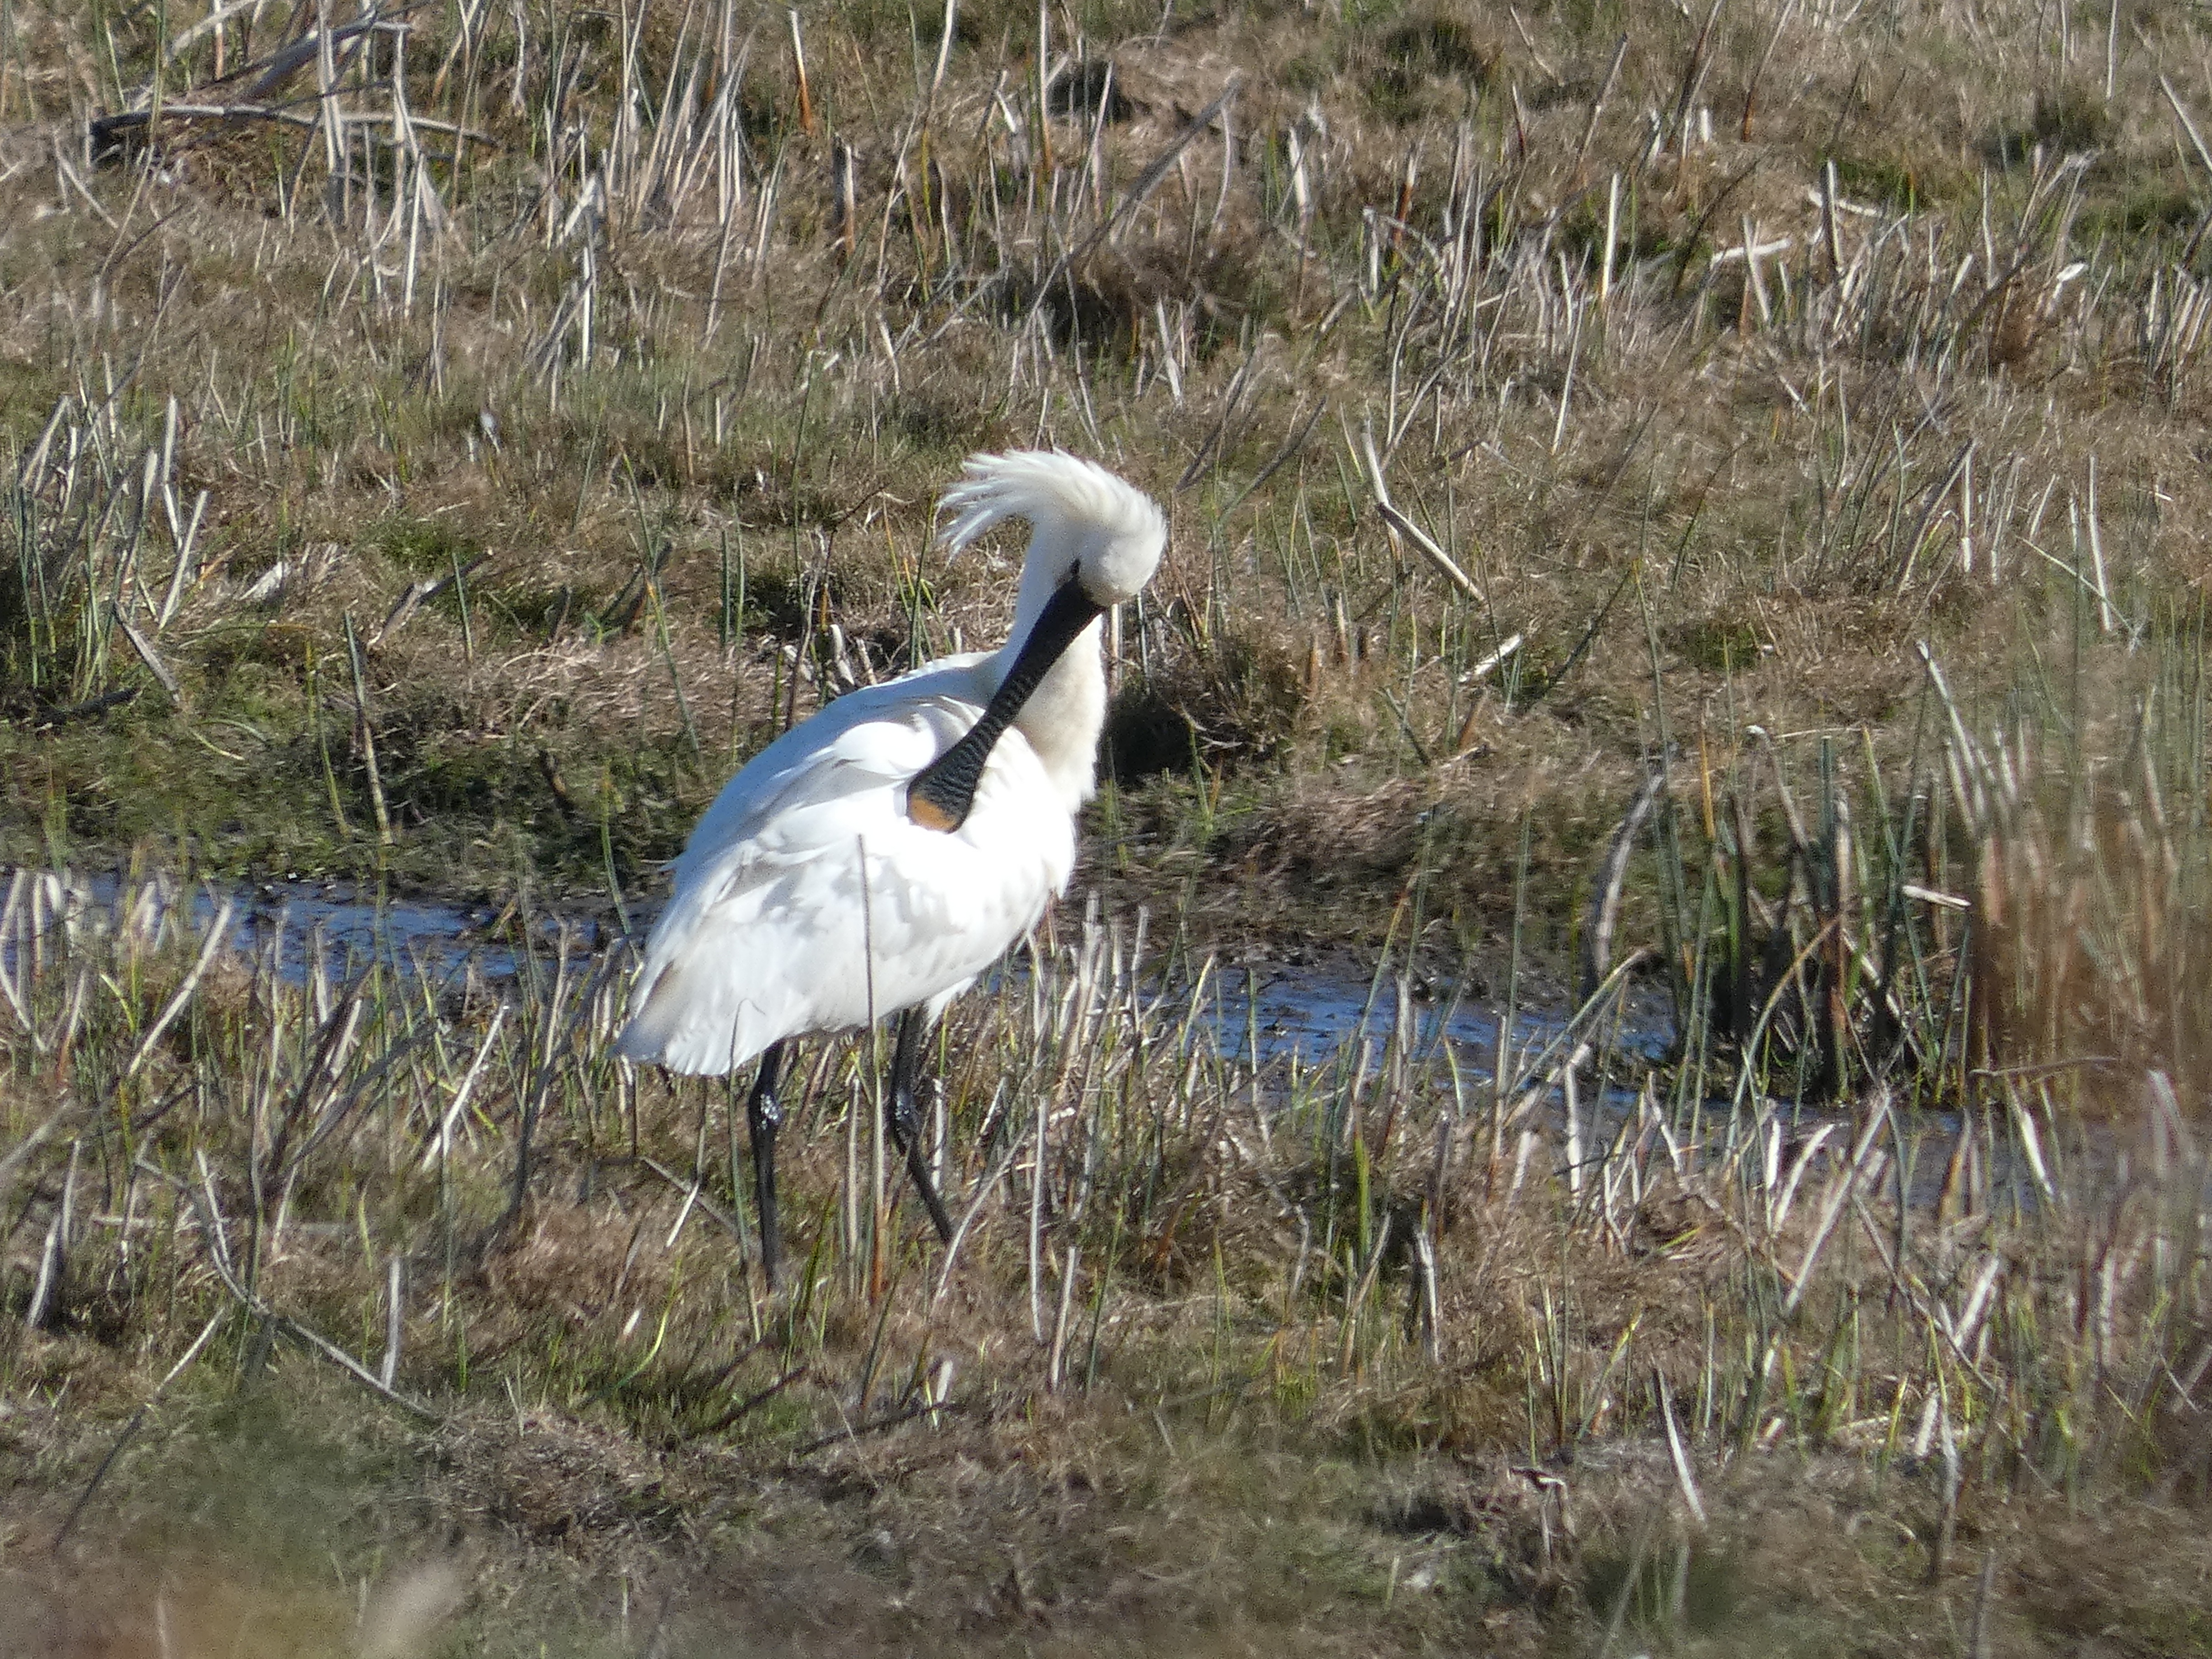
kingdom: Animalia
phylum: Chordata
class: Aves
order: Pelecaniformes
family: Threskiornithidae
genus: Platalea
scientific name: Platalea leucorodia
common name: Skestork
